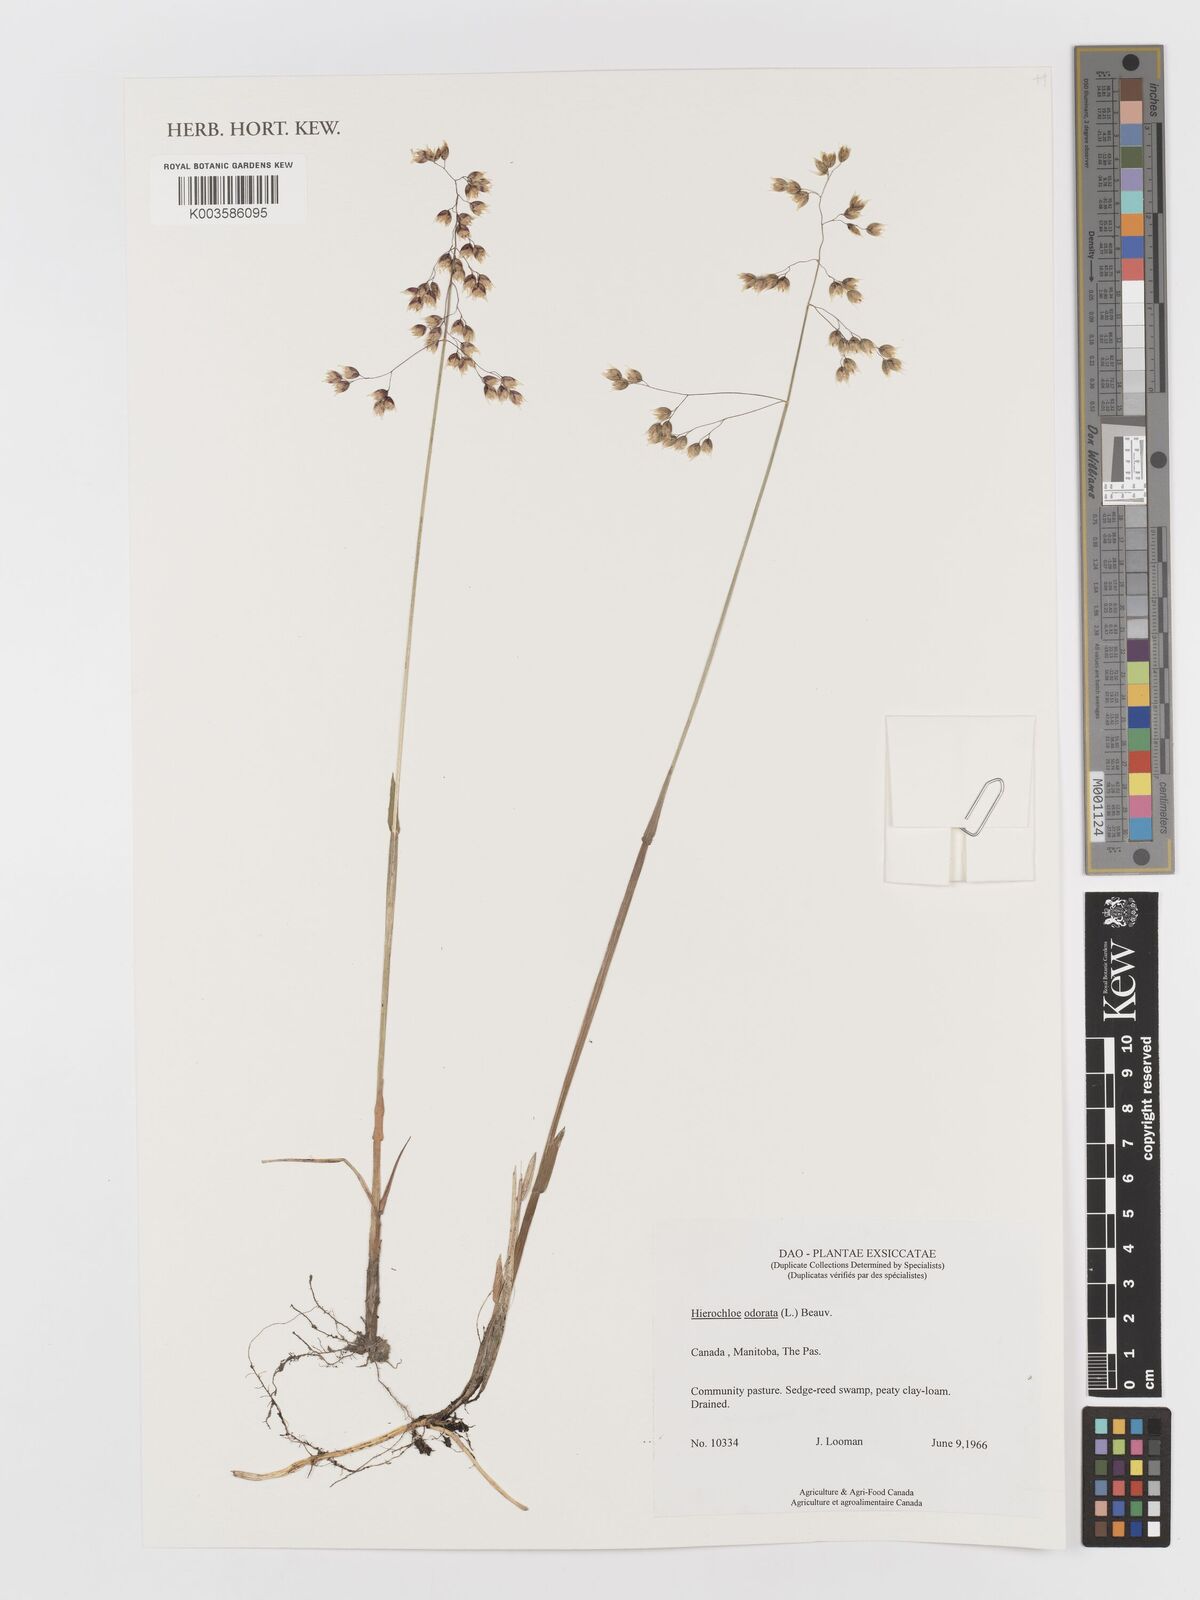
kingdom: Plantae
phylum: Tracheophyta
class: Liliopsida
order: Poales
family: Poaceae
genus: Anthoxanthum
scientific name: Anthoxanthum nitens
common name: Holy grass
